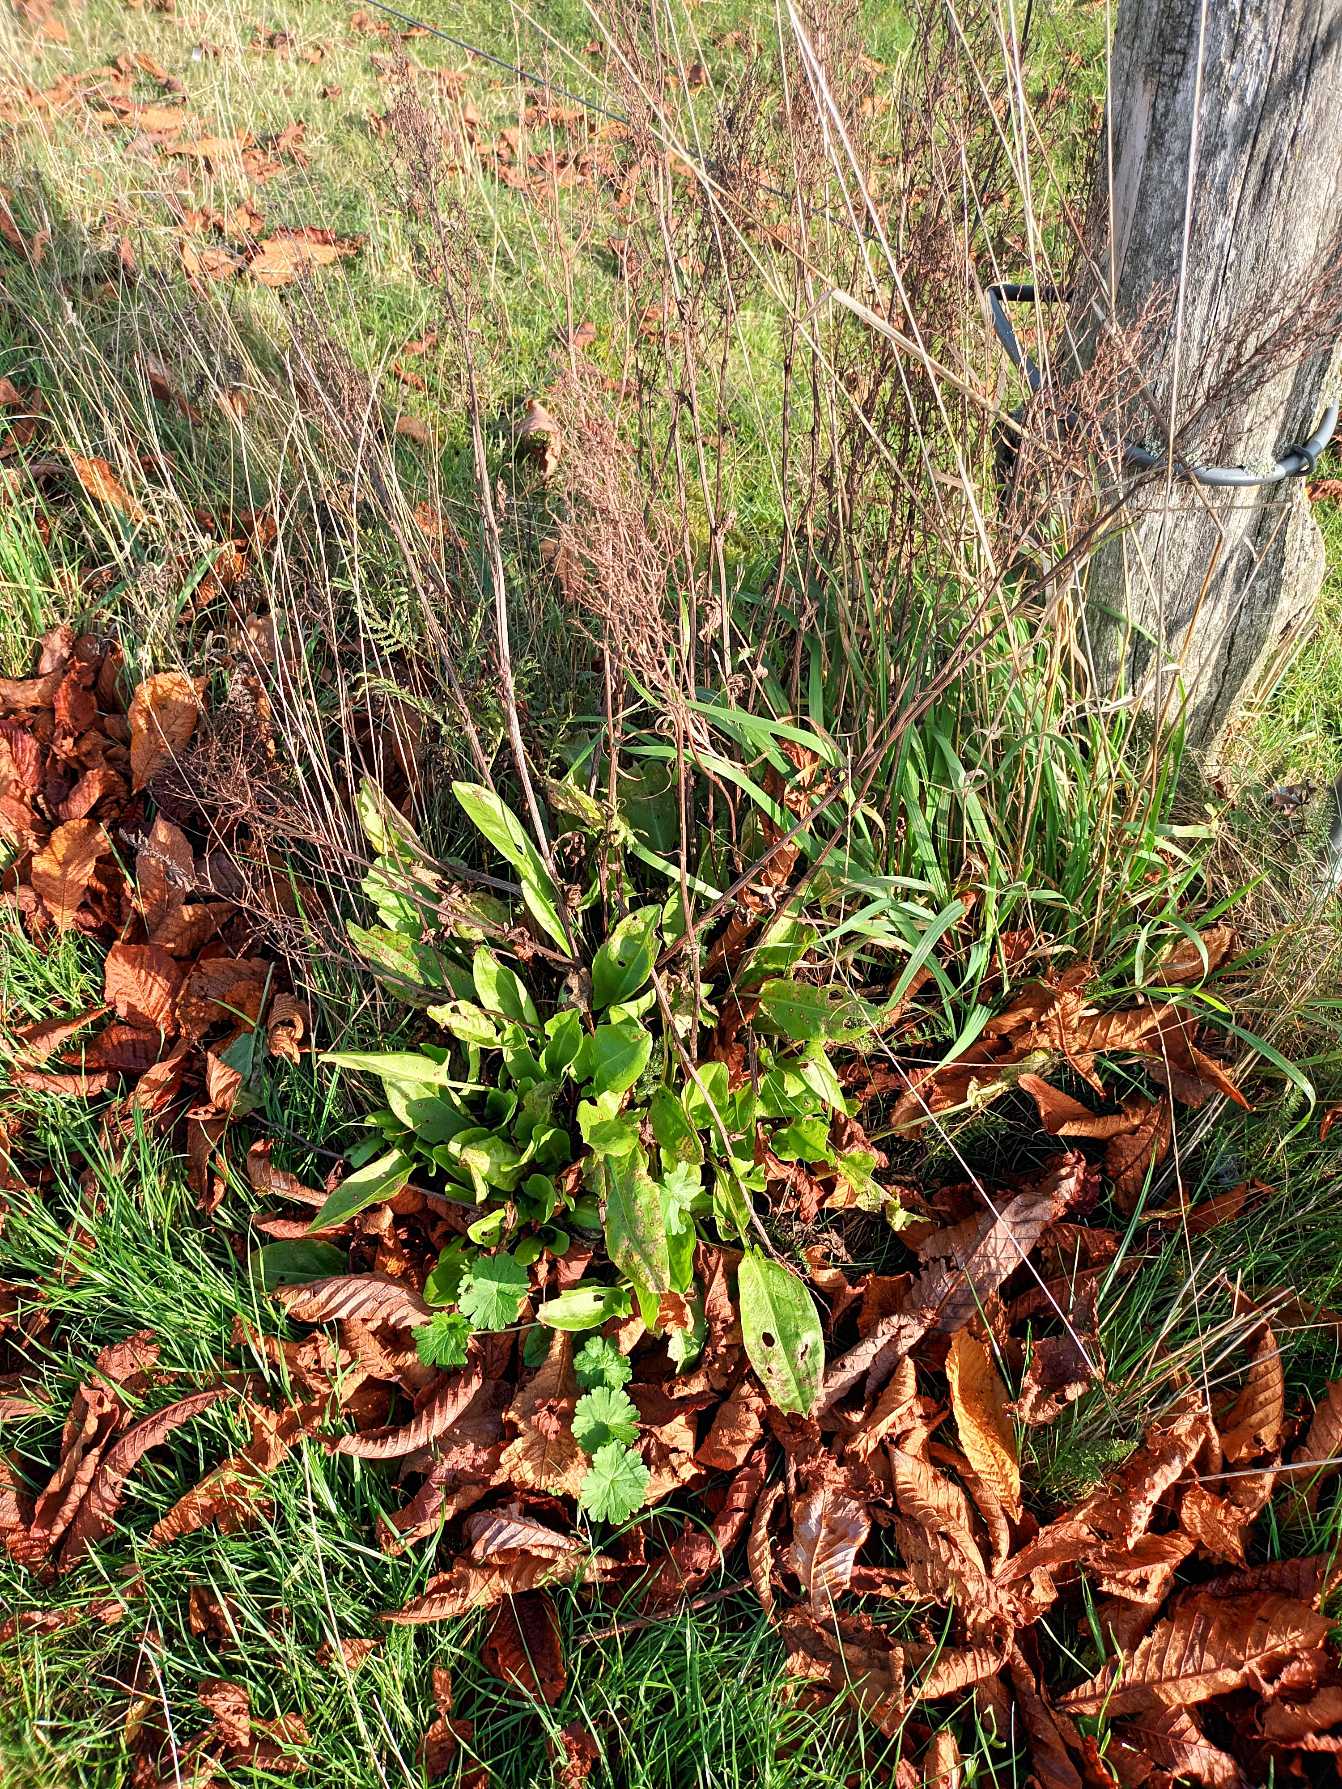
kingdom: Plantae
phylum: Tracheophyta
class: Magnoliopsida
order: Caryophyllales
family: Polygonaceae
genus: Rumex
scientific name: Rumex thyrsiflorus
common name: Dusk-syre
